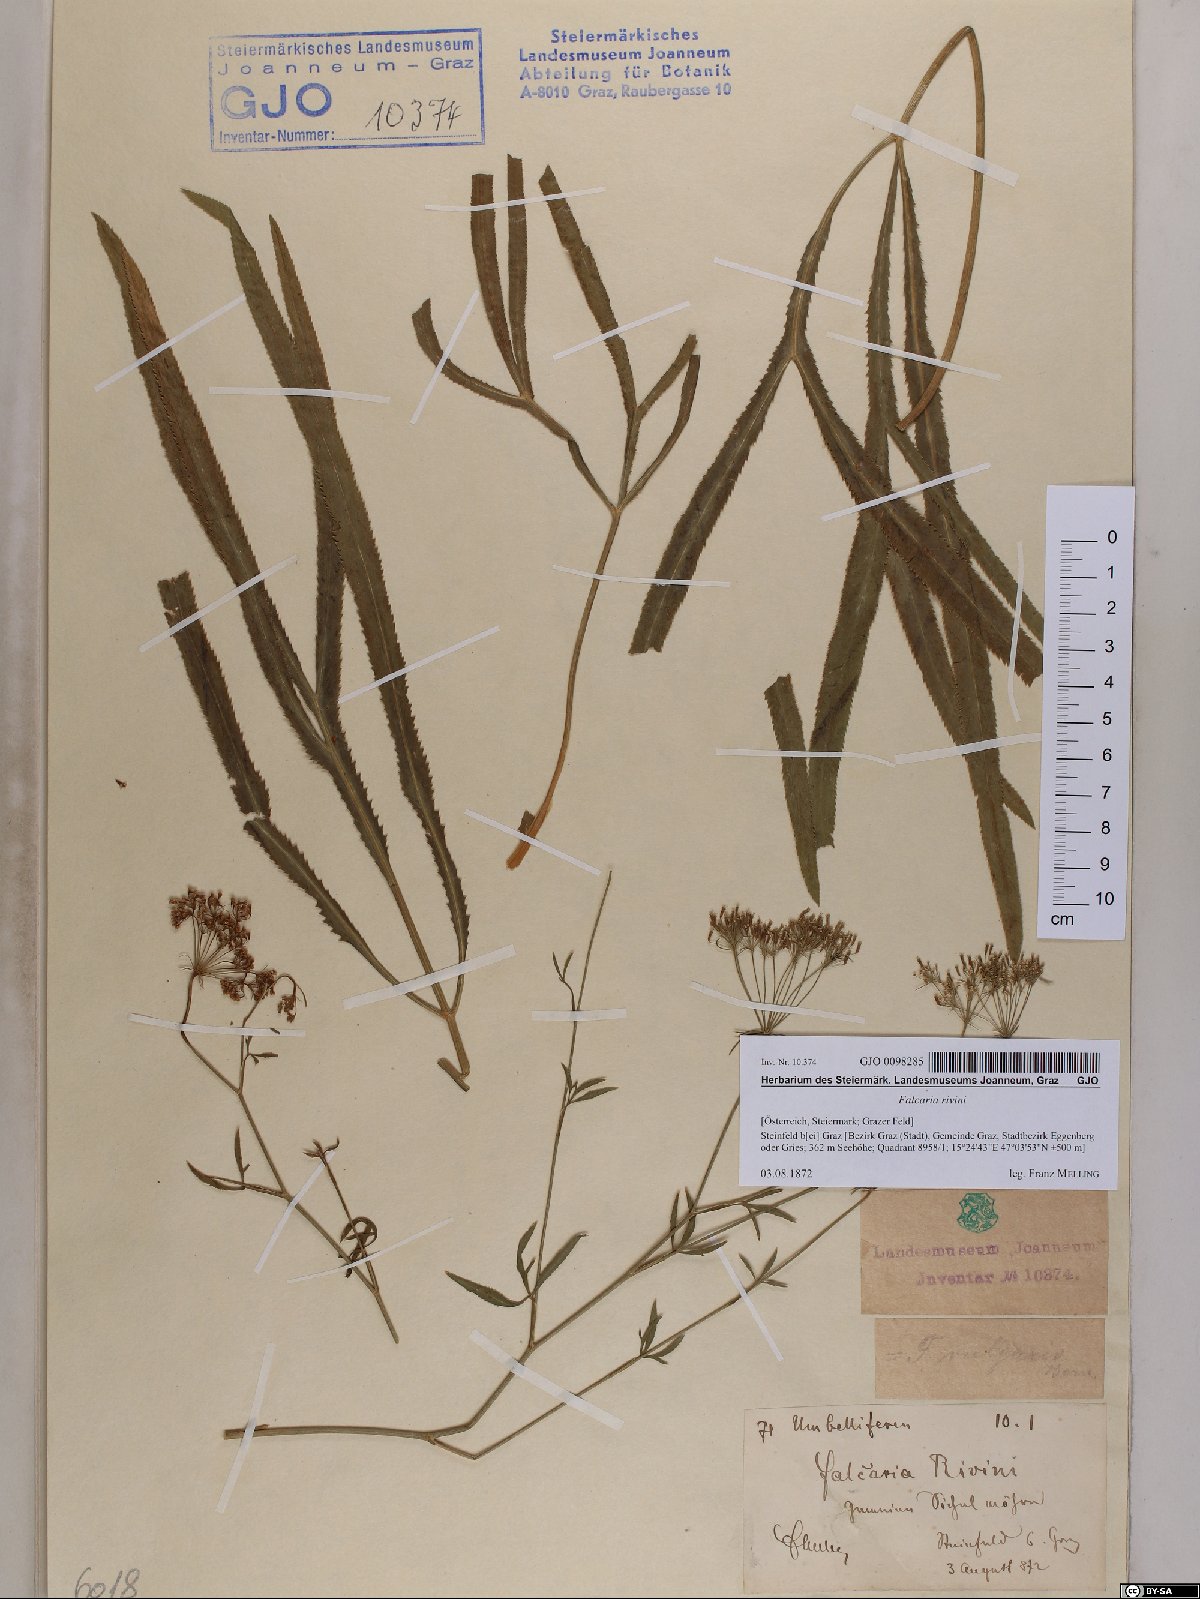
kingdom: Plantae
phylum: Tracheophyta
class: Magnoliopsida
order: Apiales
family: Apiaceae
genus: Falcaria
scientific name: Falcaria vulgaris
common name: Longleaf
